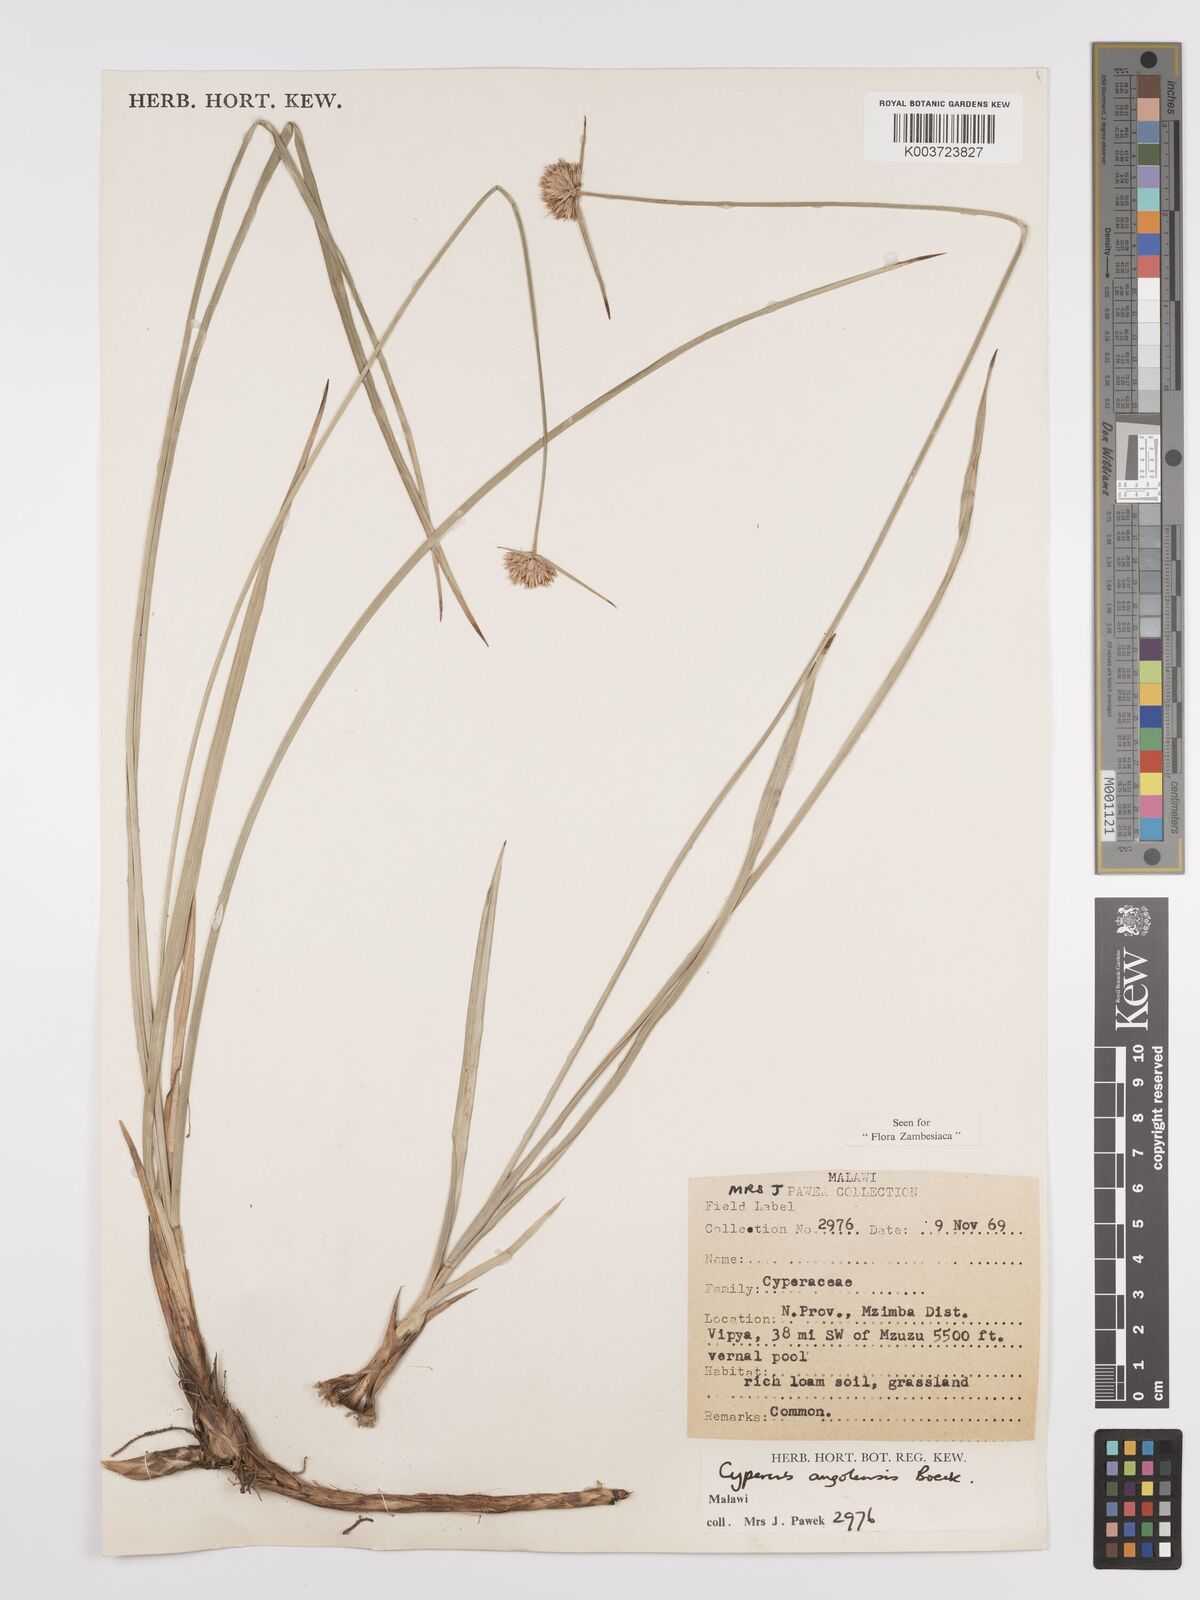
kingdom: Plantae
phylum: Tracheophyta
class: Liliopsida
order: Poales
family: Cyperaceae
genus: Cyperus
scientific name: Cyperus angolensis
